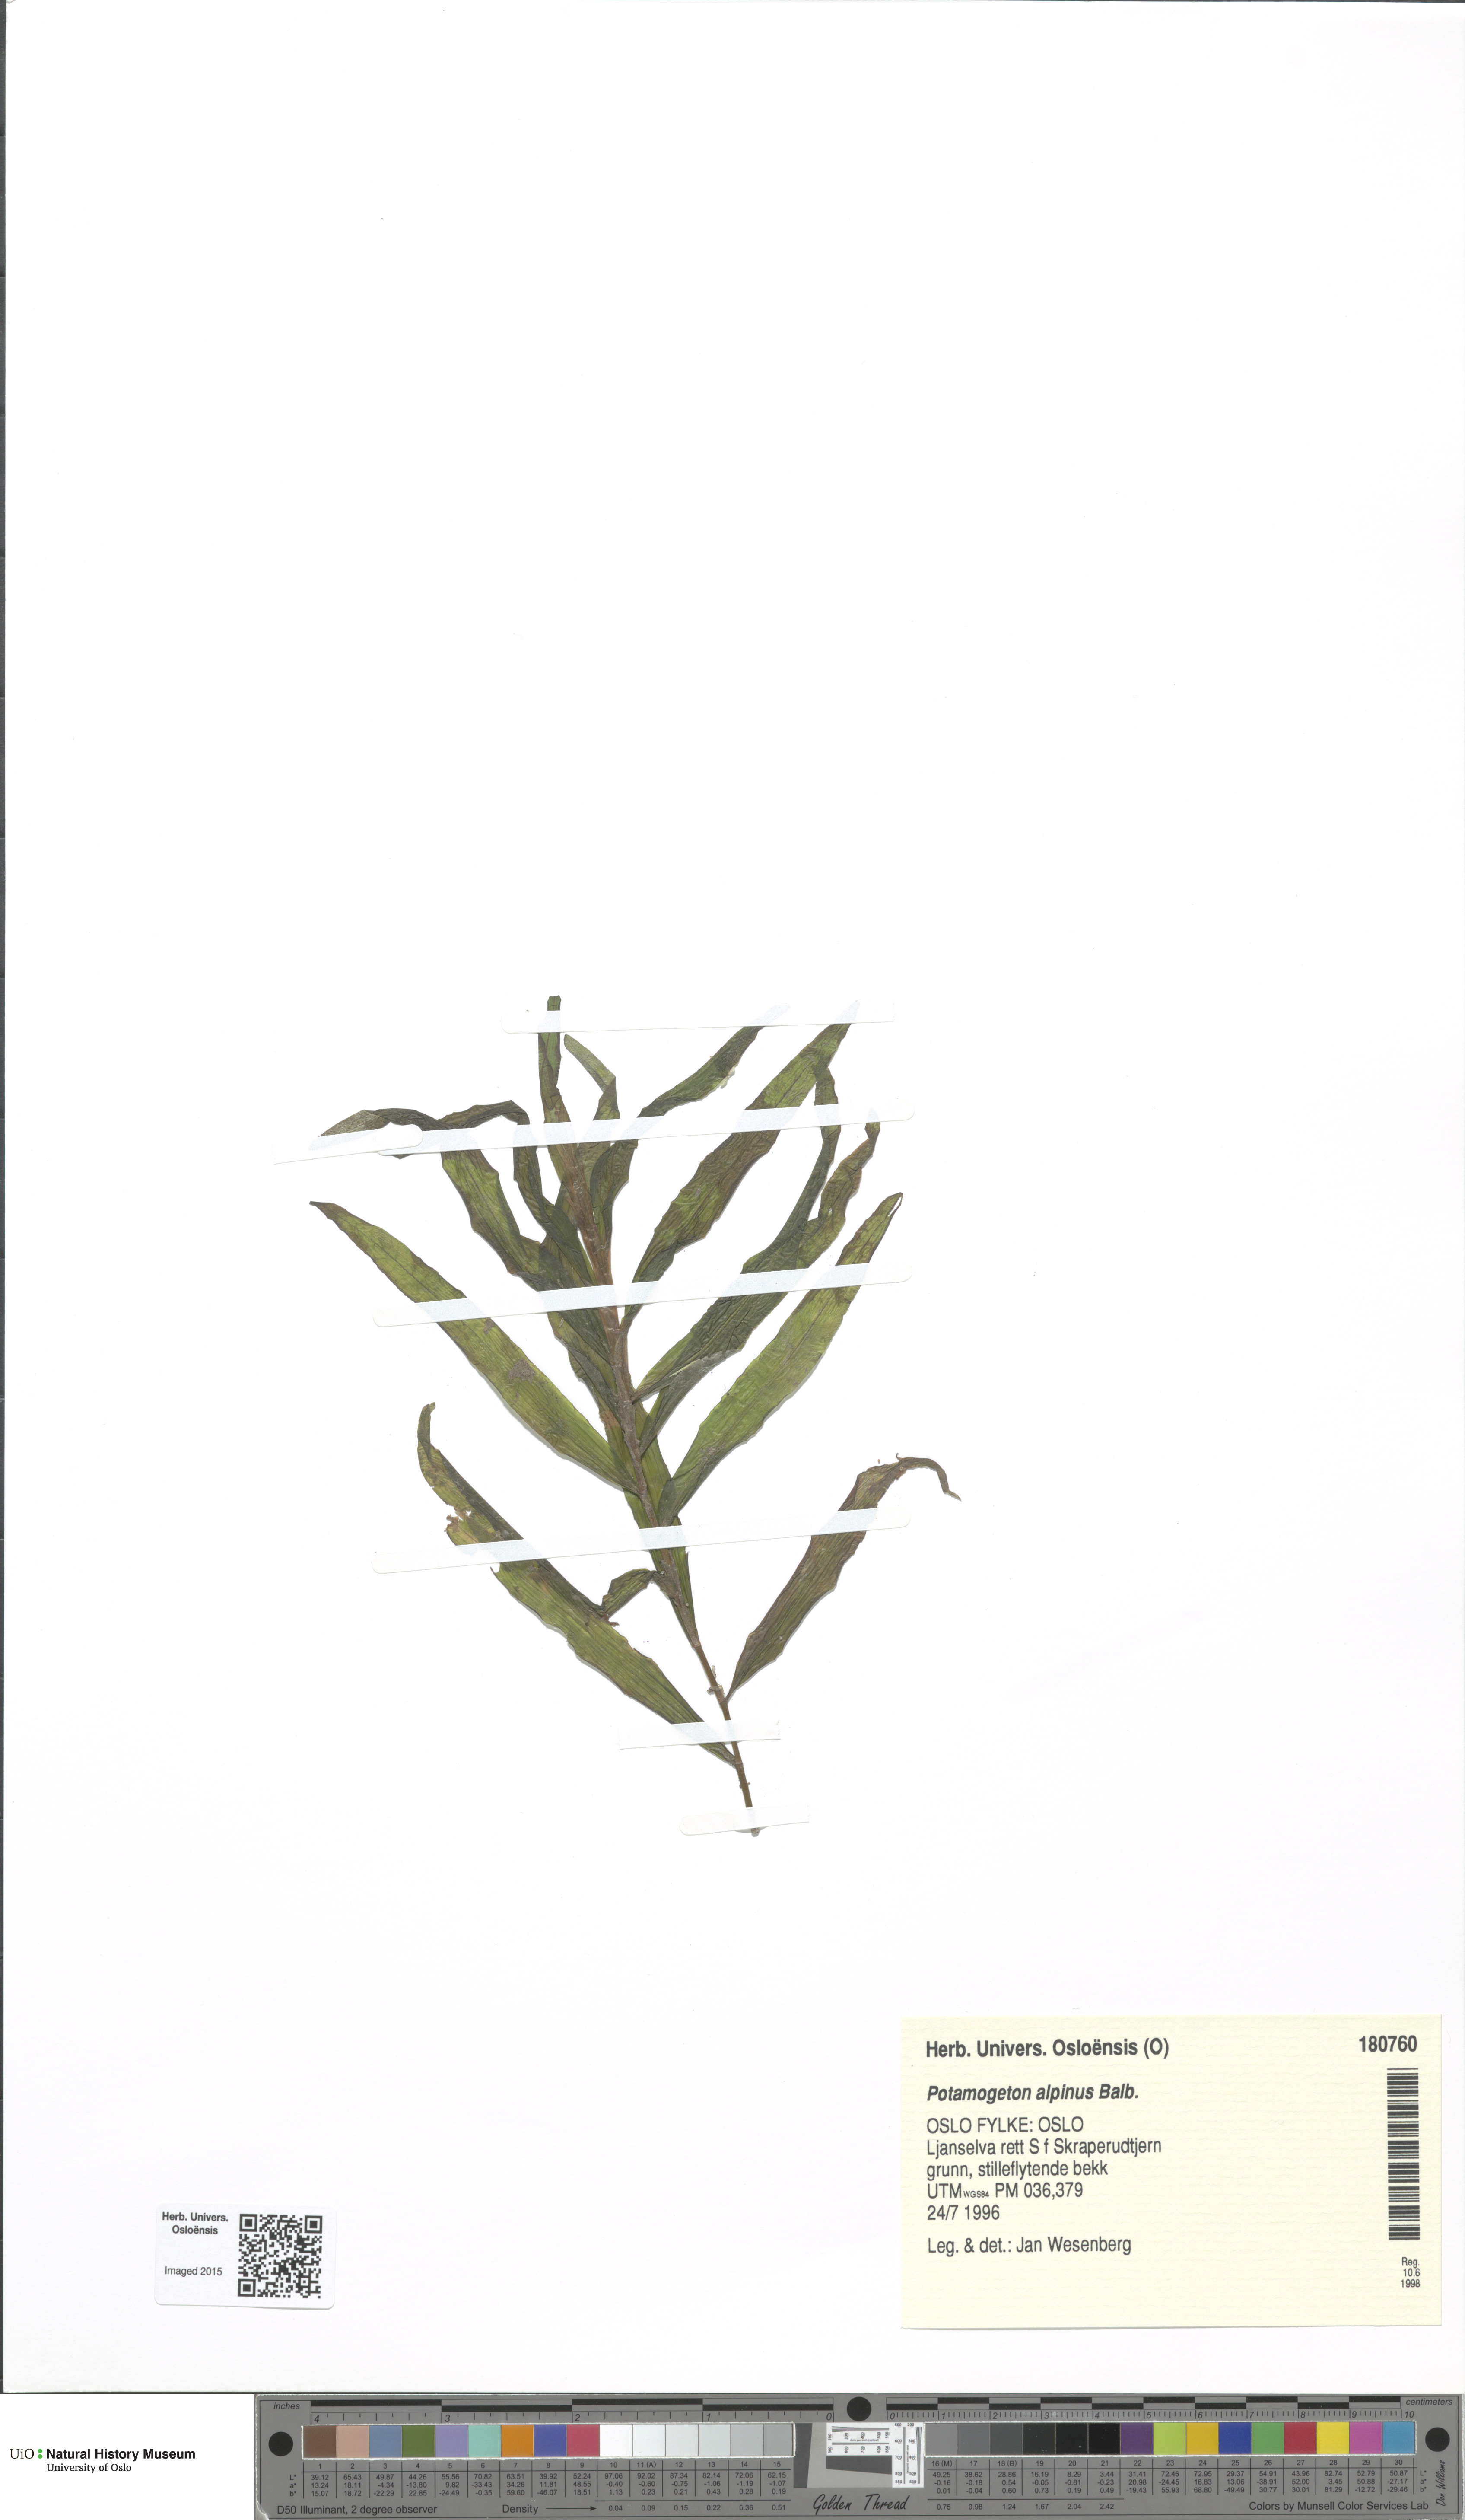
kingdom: Plantae
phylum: Tracheophyta
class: Liliopsida
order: Alismatales
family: Potamogetonaceae
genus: Potamogeton
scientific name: Potamogeton alpinus
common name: Red pondweed
